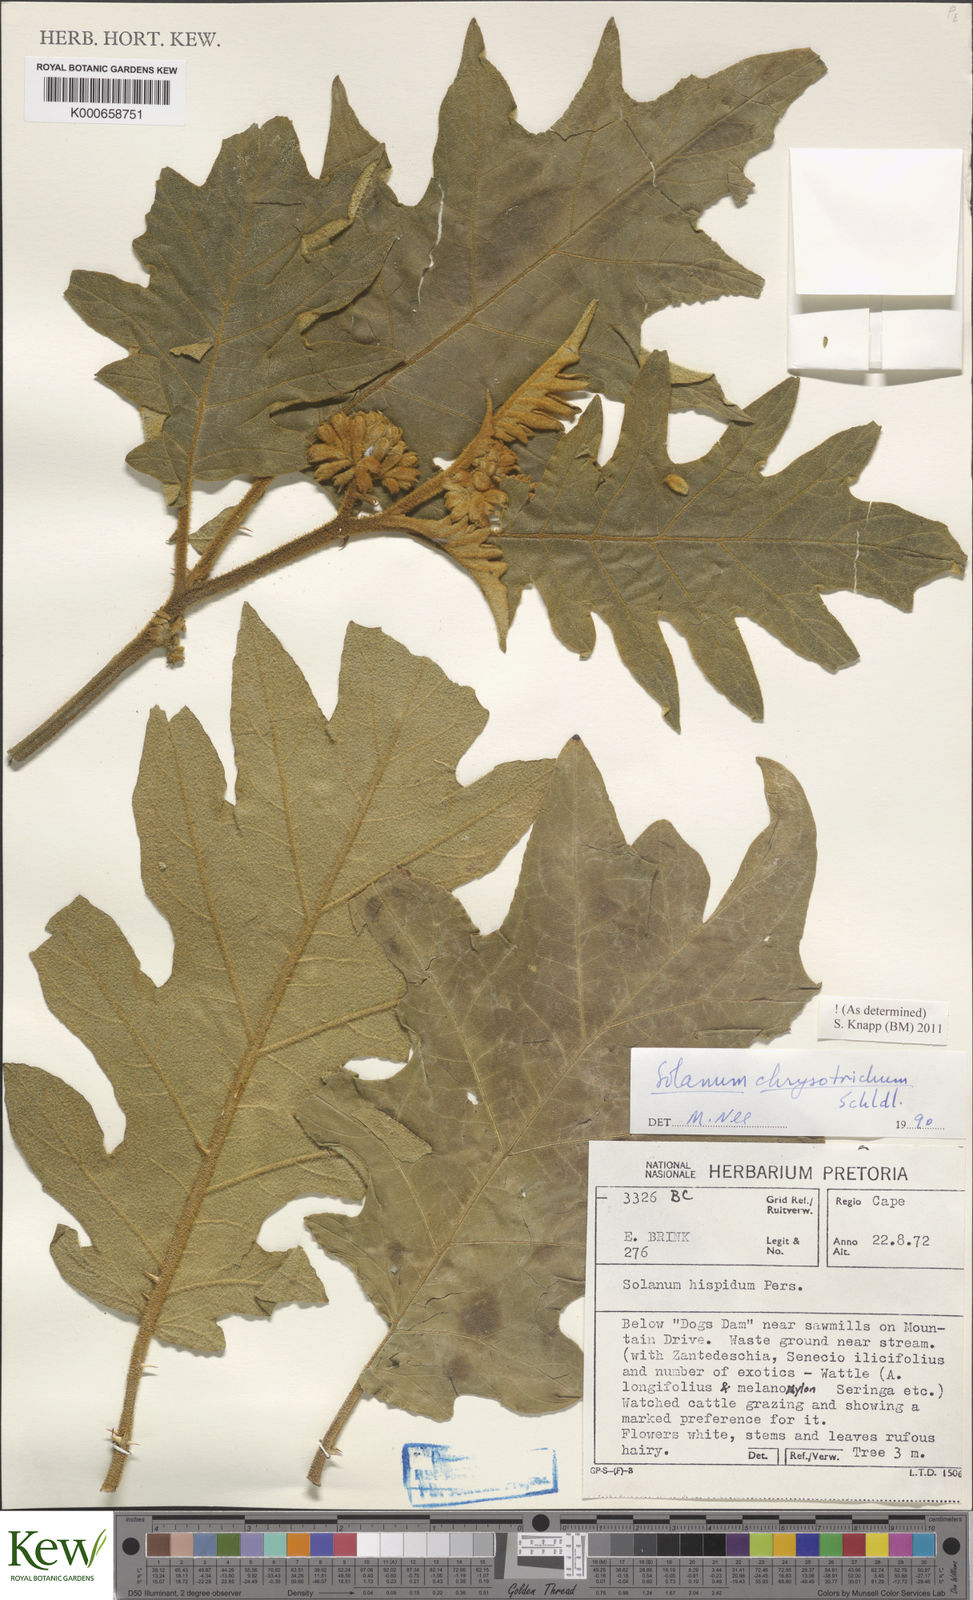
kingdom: Plantae
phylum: Tracheophyta
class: Magnoliopsida
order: Solanales
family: Solanaceae
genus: Solanum
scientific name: Solanum chrysotrichum
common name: Nightshade
